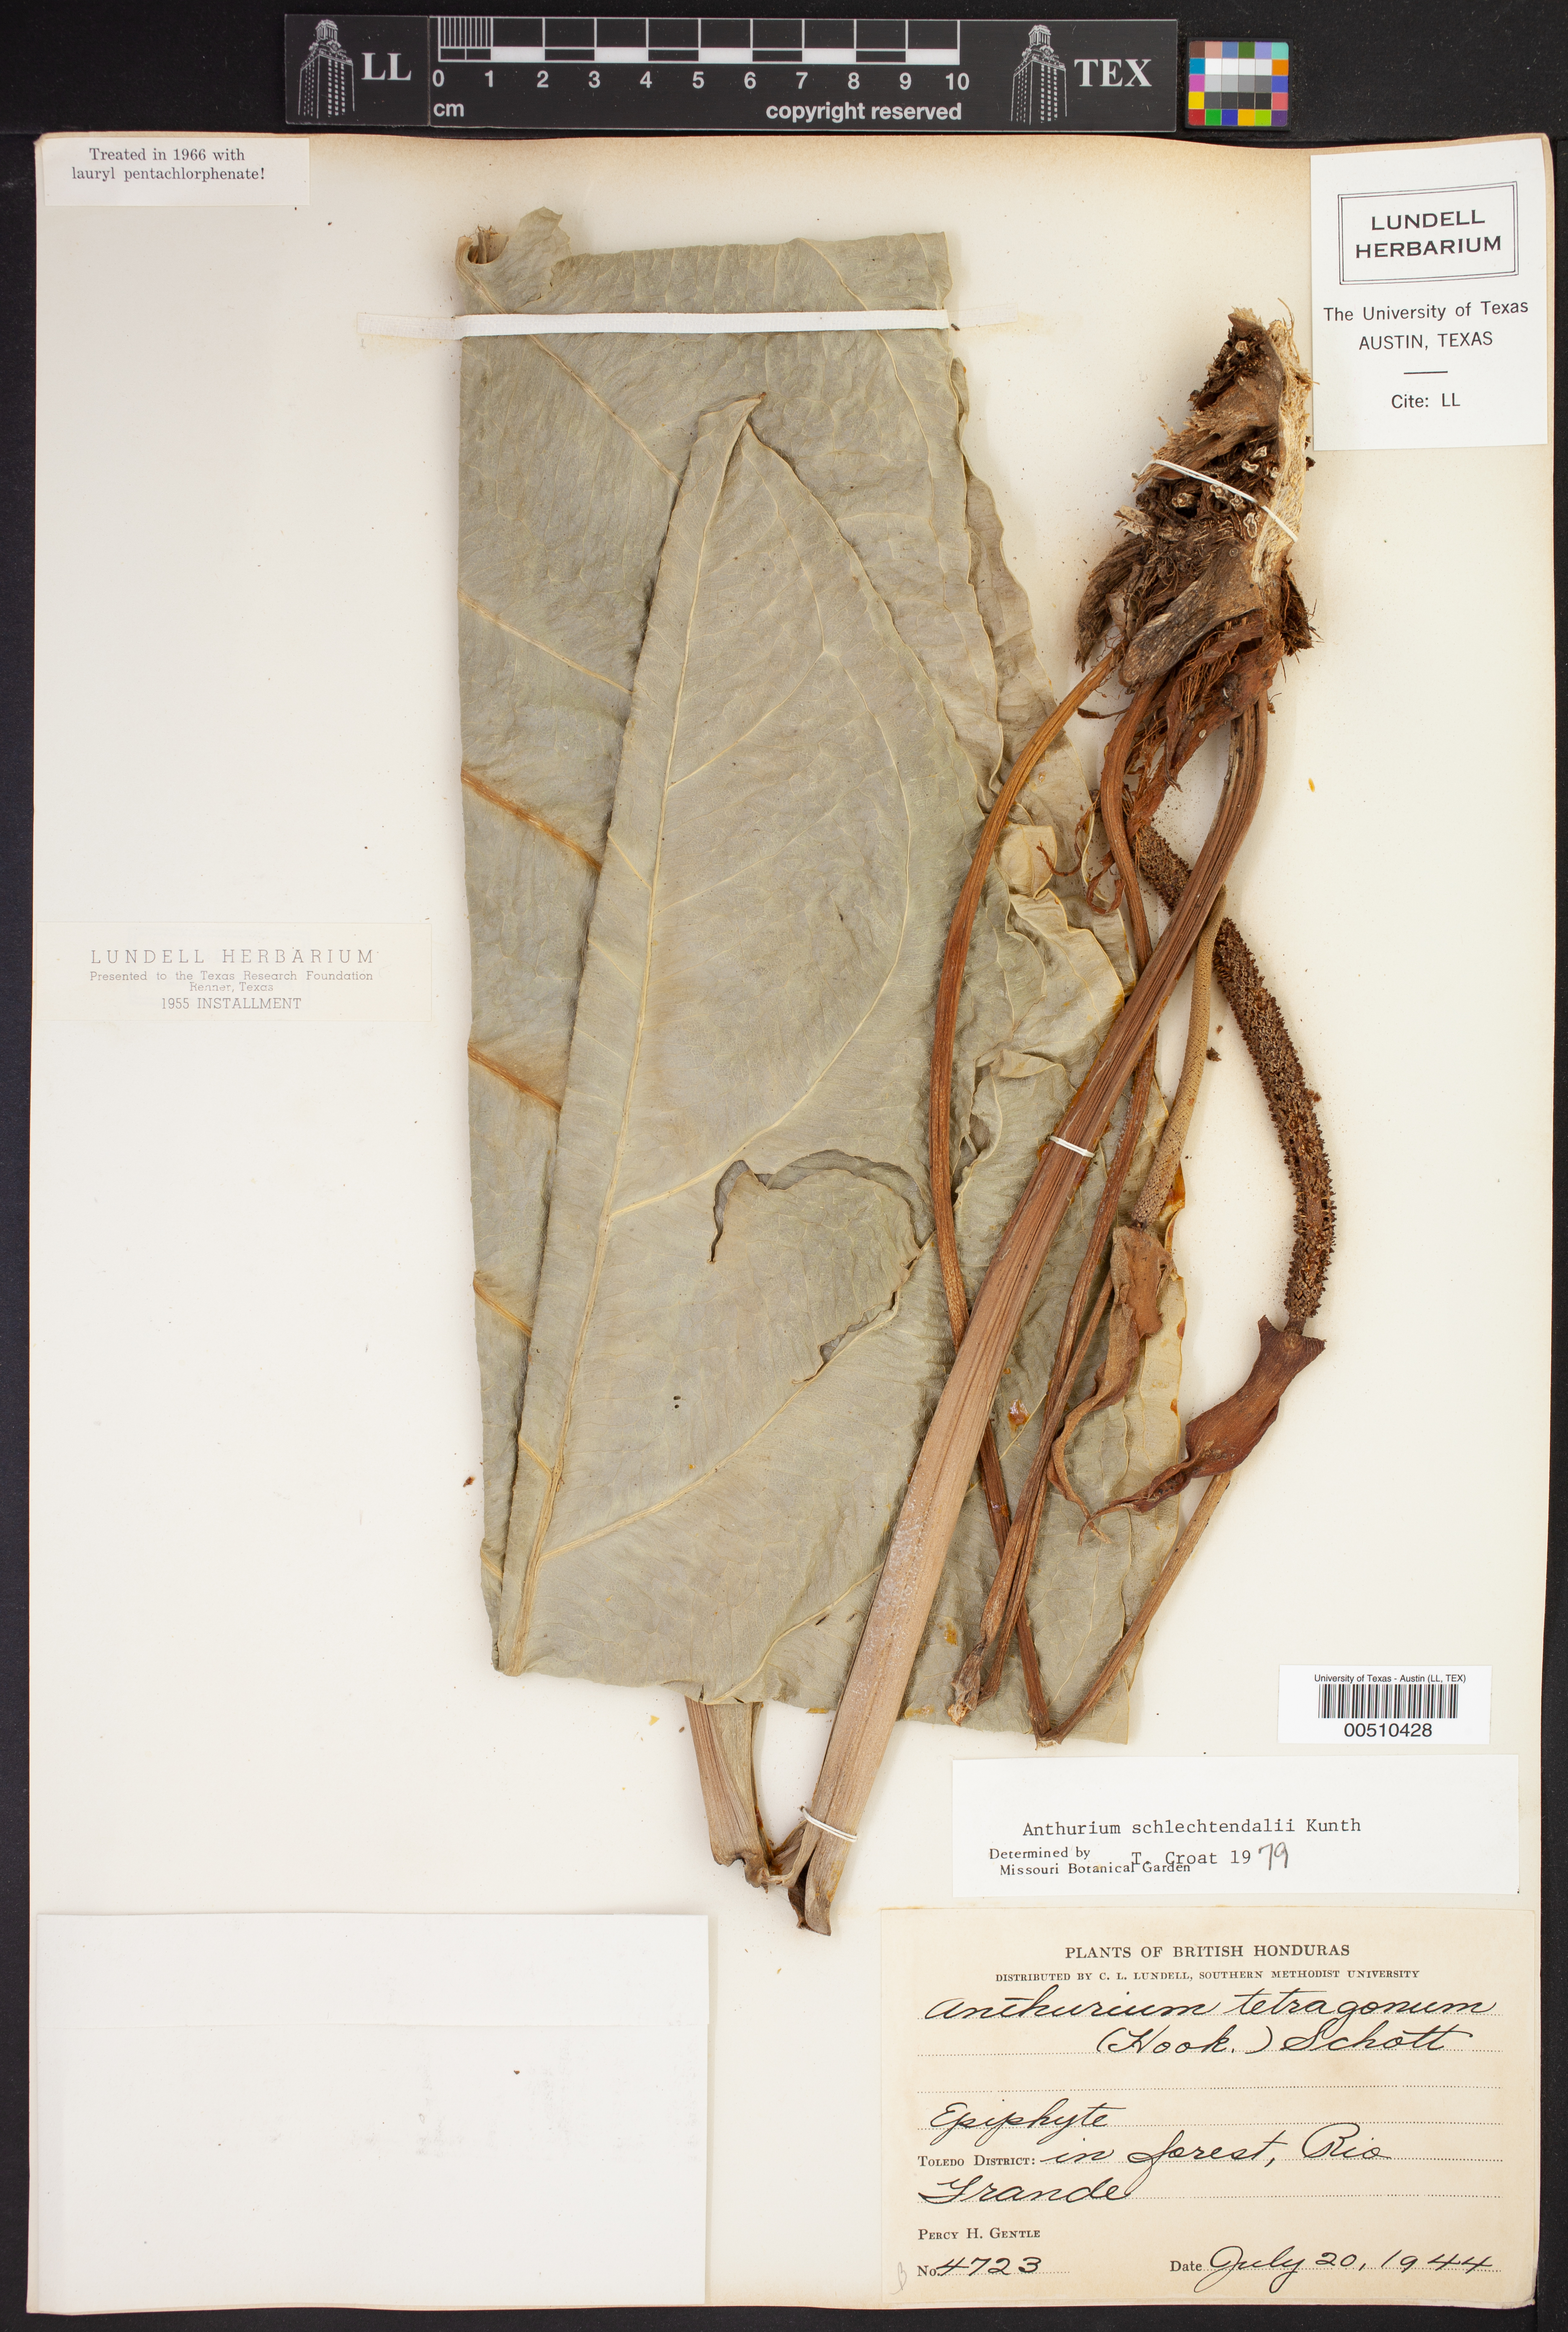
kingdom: Plantae
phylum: Tracheophyta
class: Liliopsida
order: Alismatales
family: Araceae
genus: Anthurium
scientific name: Anthurium schlechtendalii
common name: Laceleaf
